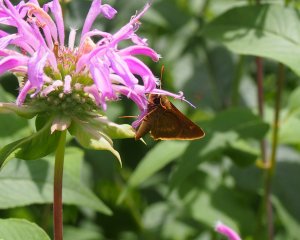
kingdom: Animalia
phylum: Arthropoda
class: Insecta
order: Lepidoptera
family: Hesperiidae
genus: Polites
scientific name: Polites
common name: Long Dash Skipper
